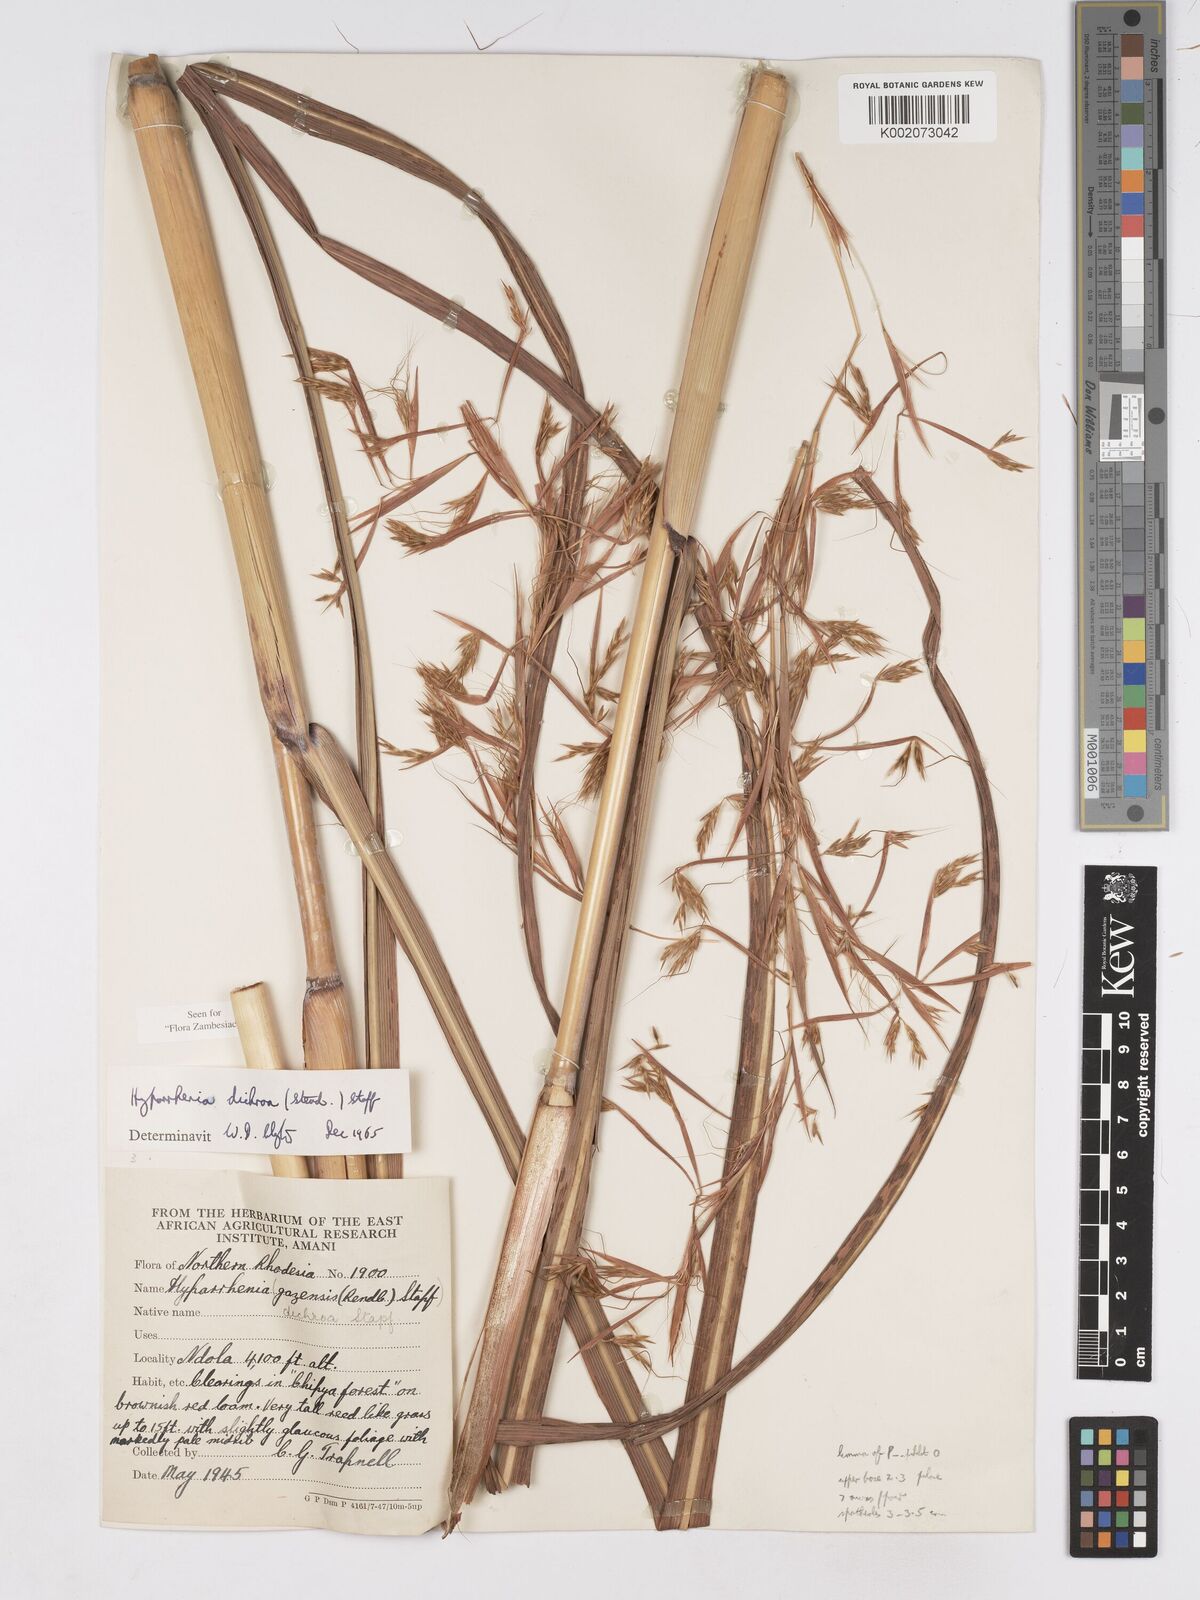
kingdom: Plantae
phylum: Tracheophyta
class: Liliopsida
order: Poales
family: Poaceae
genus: Hyparrhenia
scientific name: Hyparrhenia dichroa
